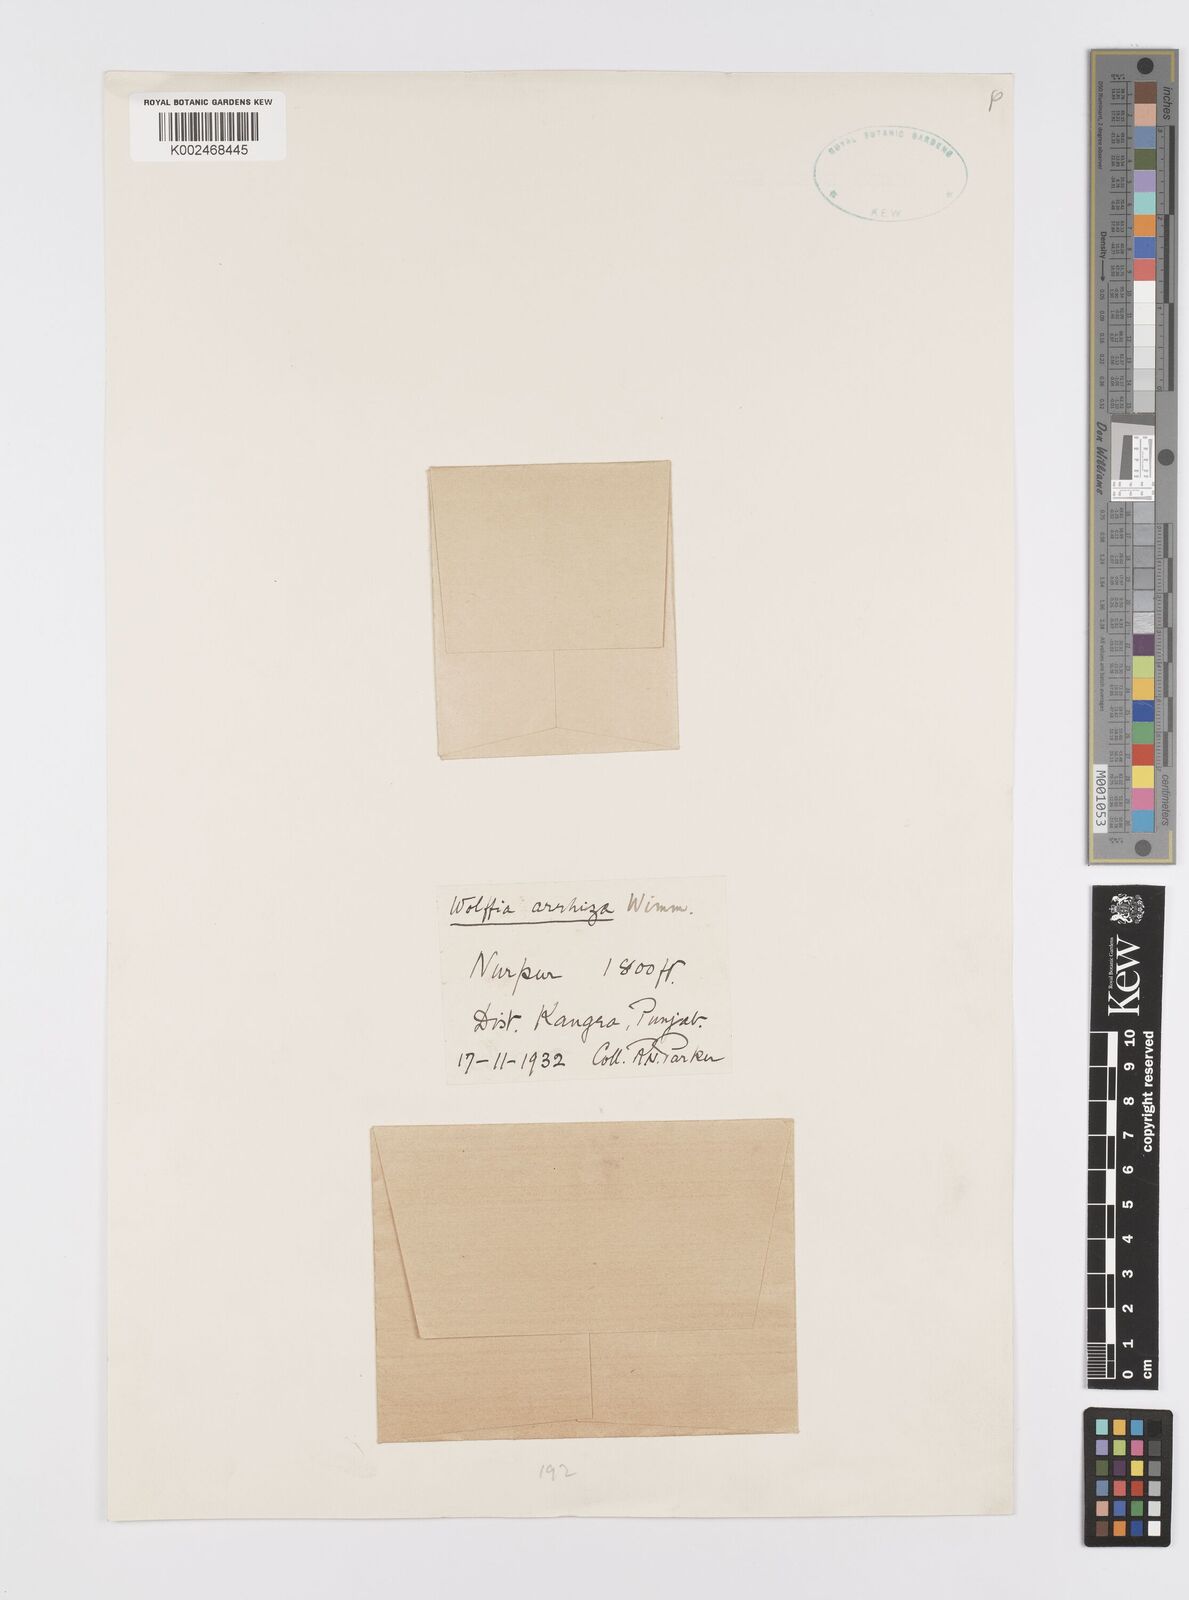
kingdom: Plantae
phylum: Tracheophyta
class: Liliopsida
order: Alismatales
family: Araceae
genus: Wolffia
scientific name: Wolffia arrhiza
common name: Rootless duckweed
